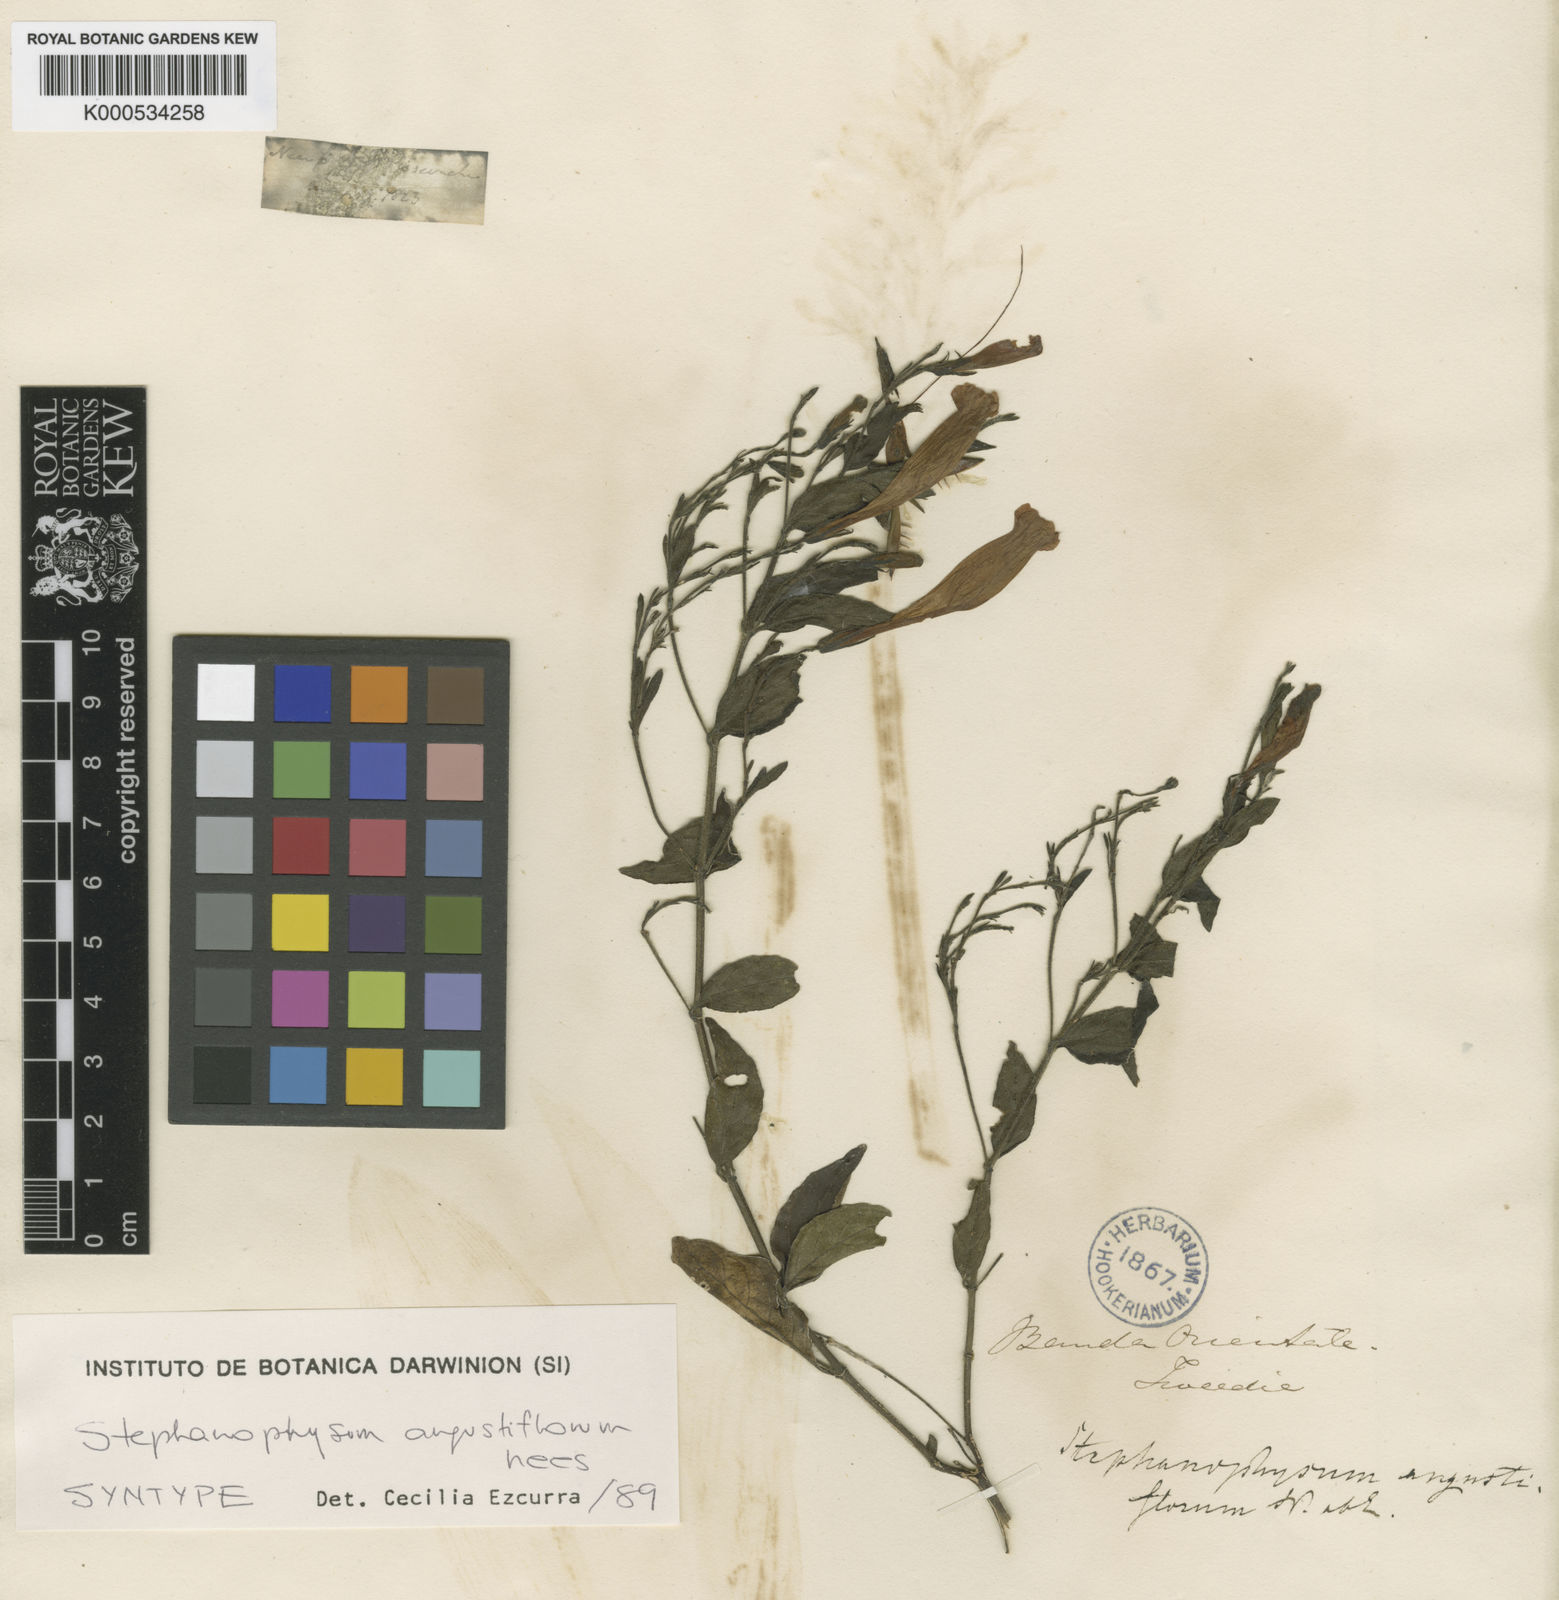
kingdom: Plantae
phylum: Tracheophyta
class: Magnoliopsida
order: Lamiales
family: Acanthaceae
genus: Ruellia
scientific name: Ruellia angustiflora
